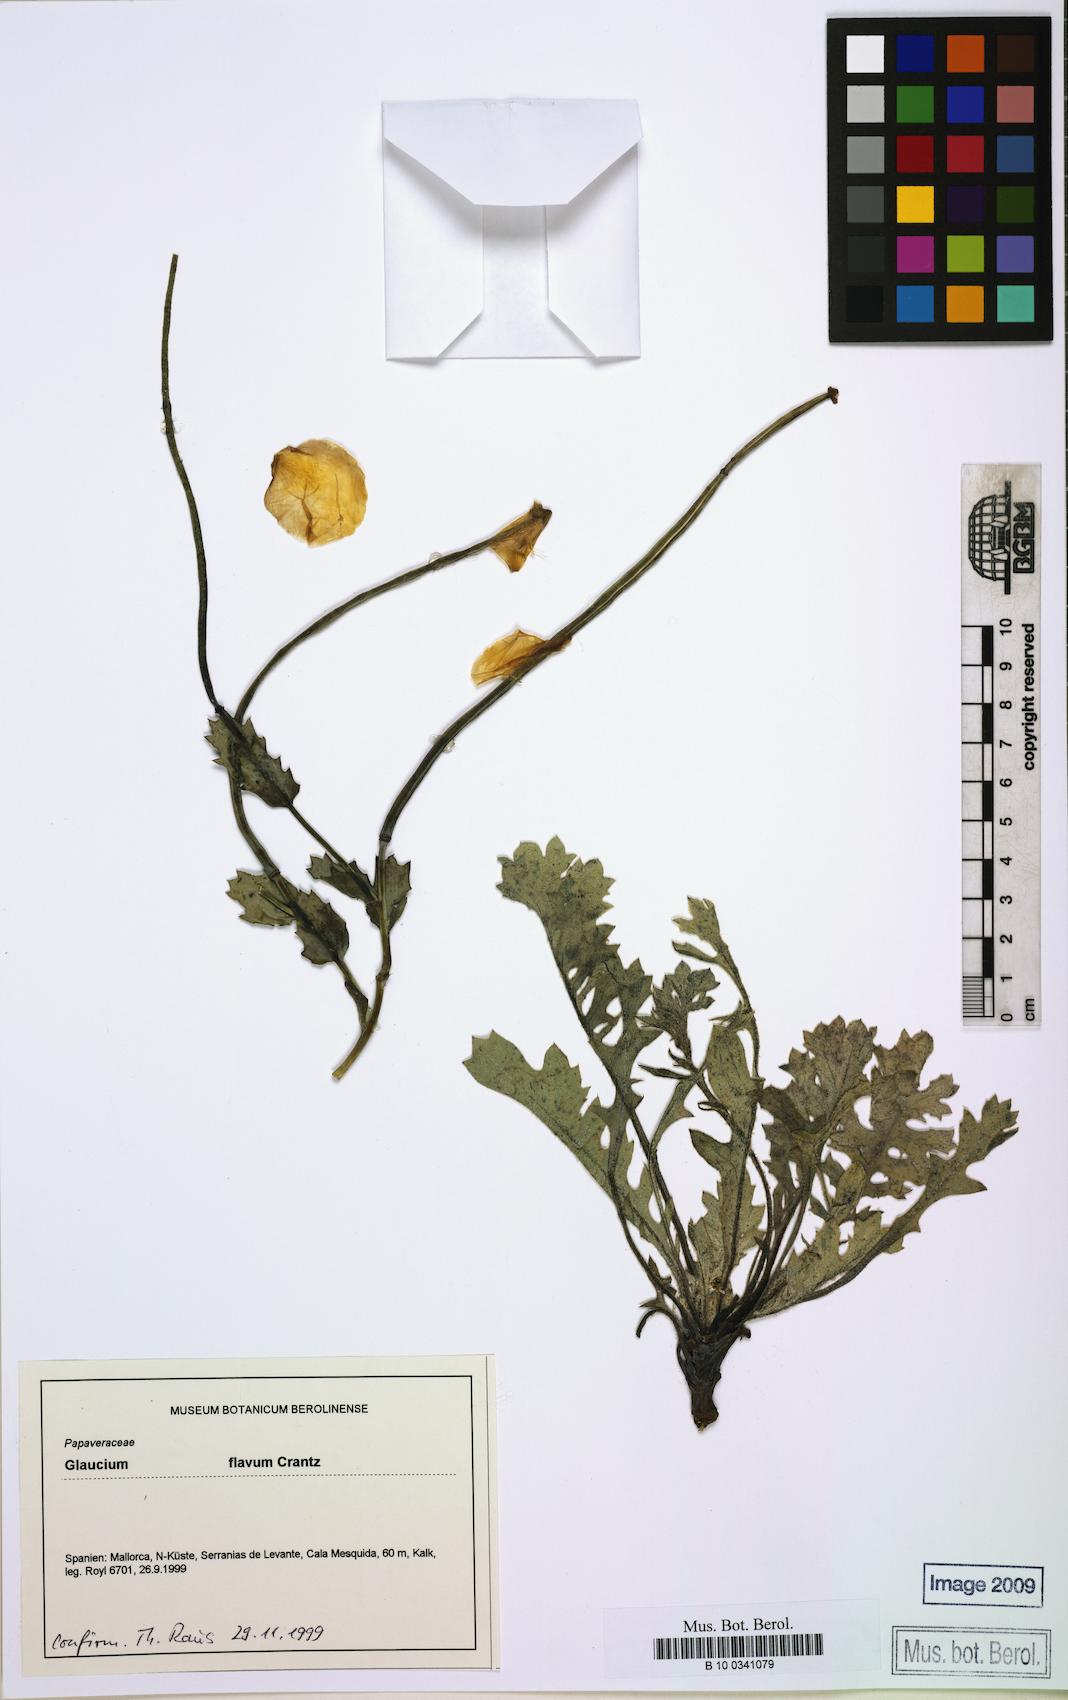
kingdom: Plantae
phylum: Tracheophyta
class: Magnoliopsida
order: Ranunculales
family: Papaveraceae
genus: Glaucium
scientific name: Glaucium flavum
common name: Yellow horned-poppy
